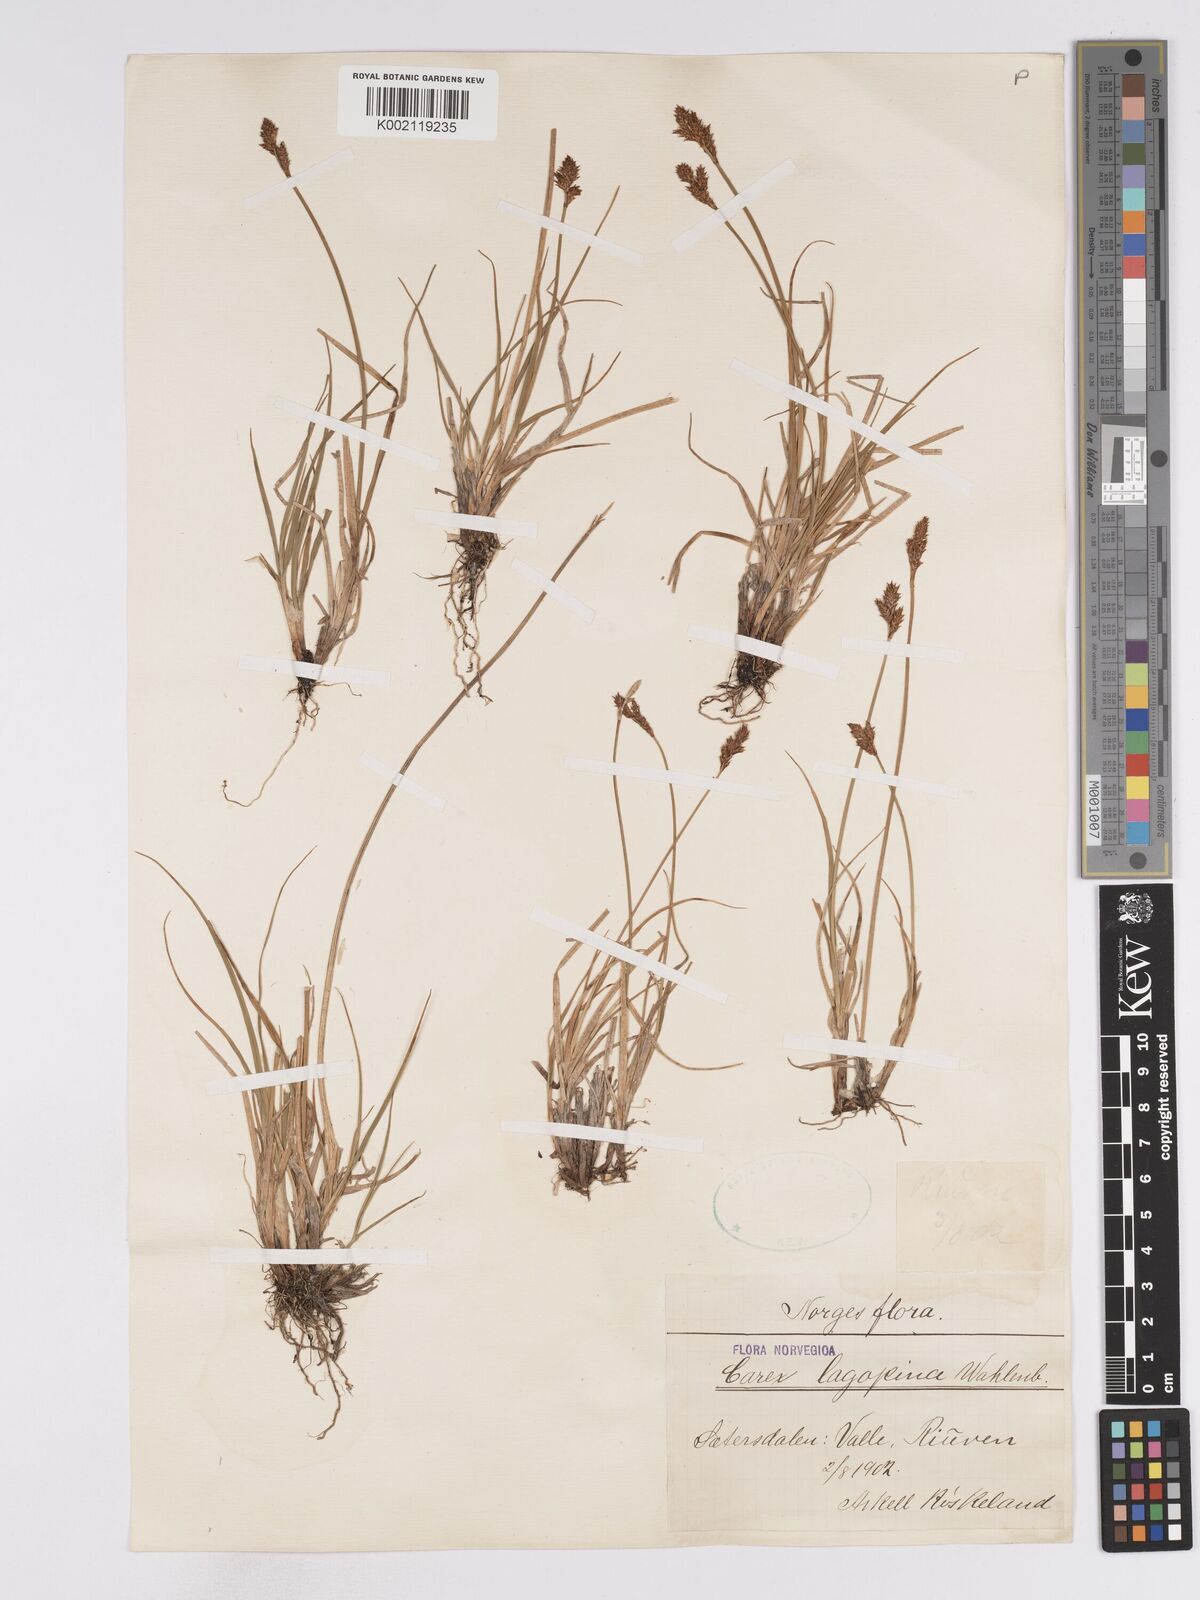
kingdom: Plantae
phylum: Tracheophyta
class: Liliopsida
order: Poales
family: Cyperaceae
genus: Carex
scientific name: Carex lachenalii
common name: Hare's-foot sedge
